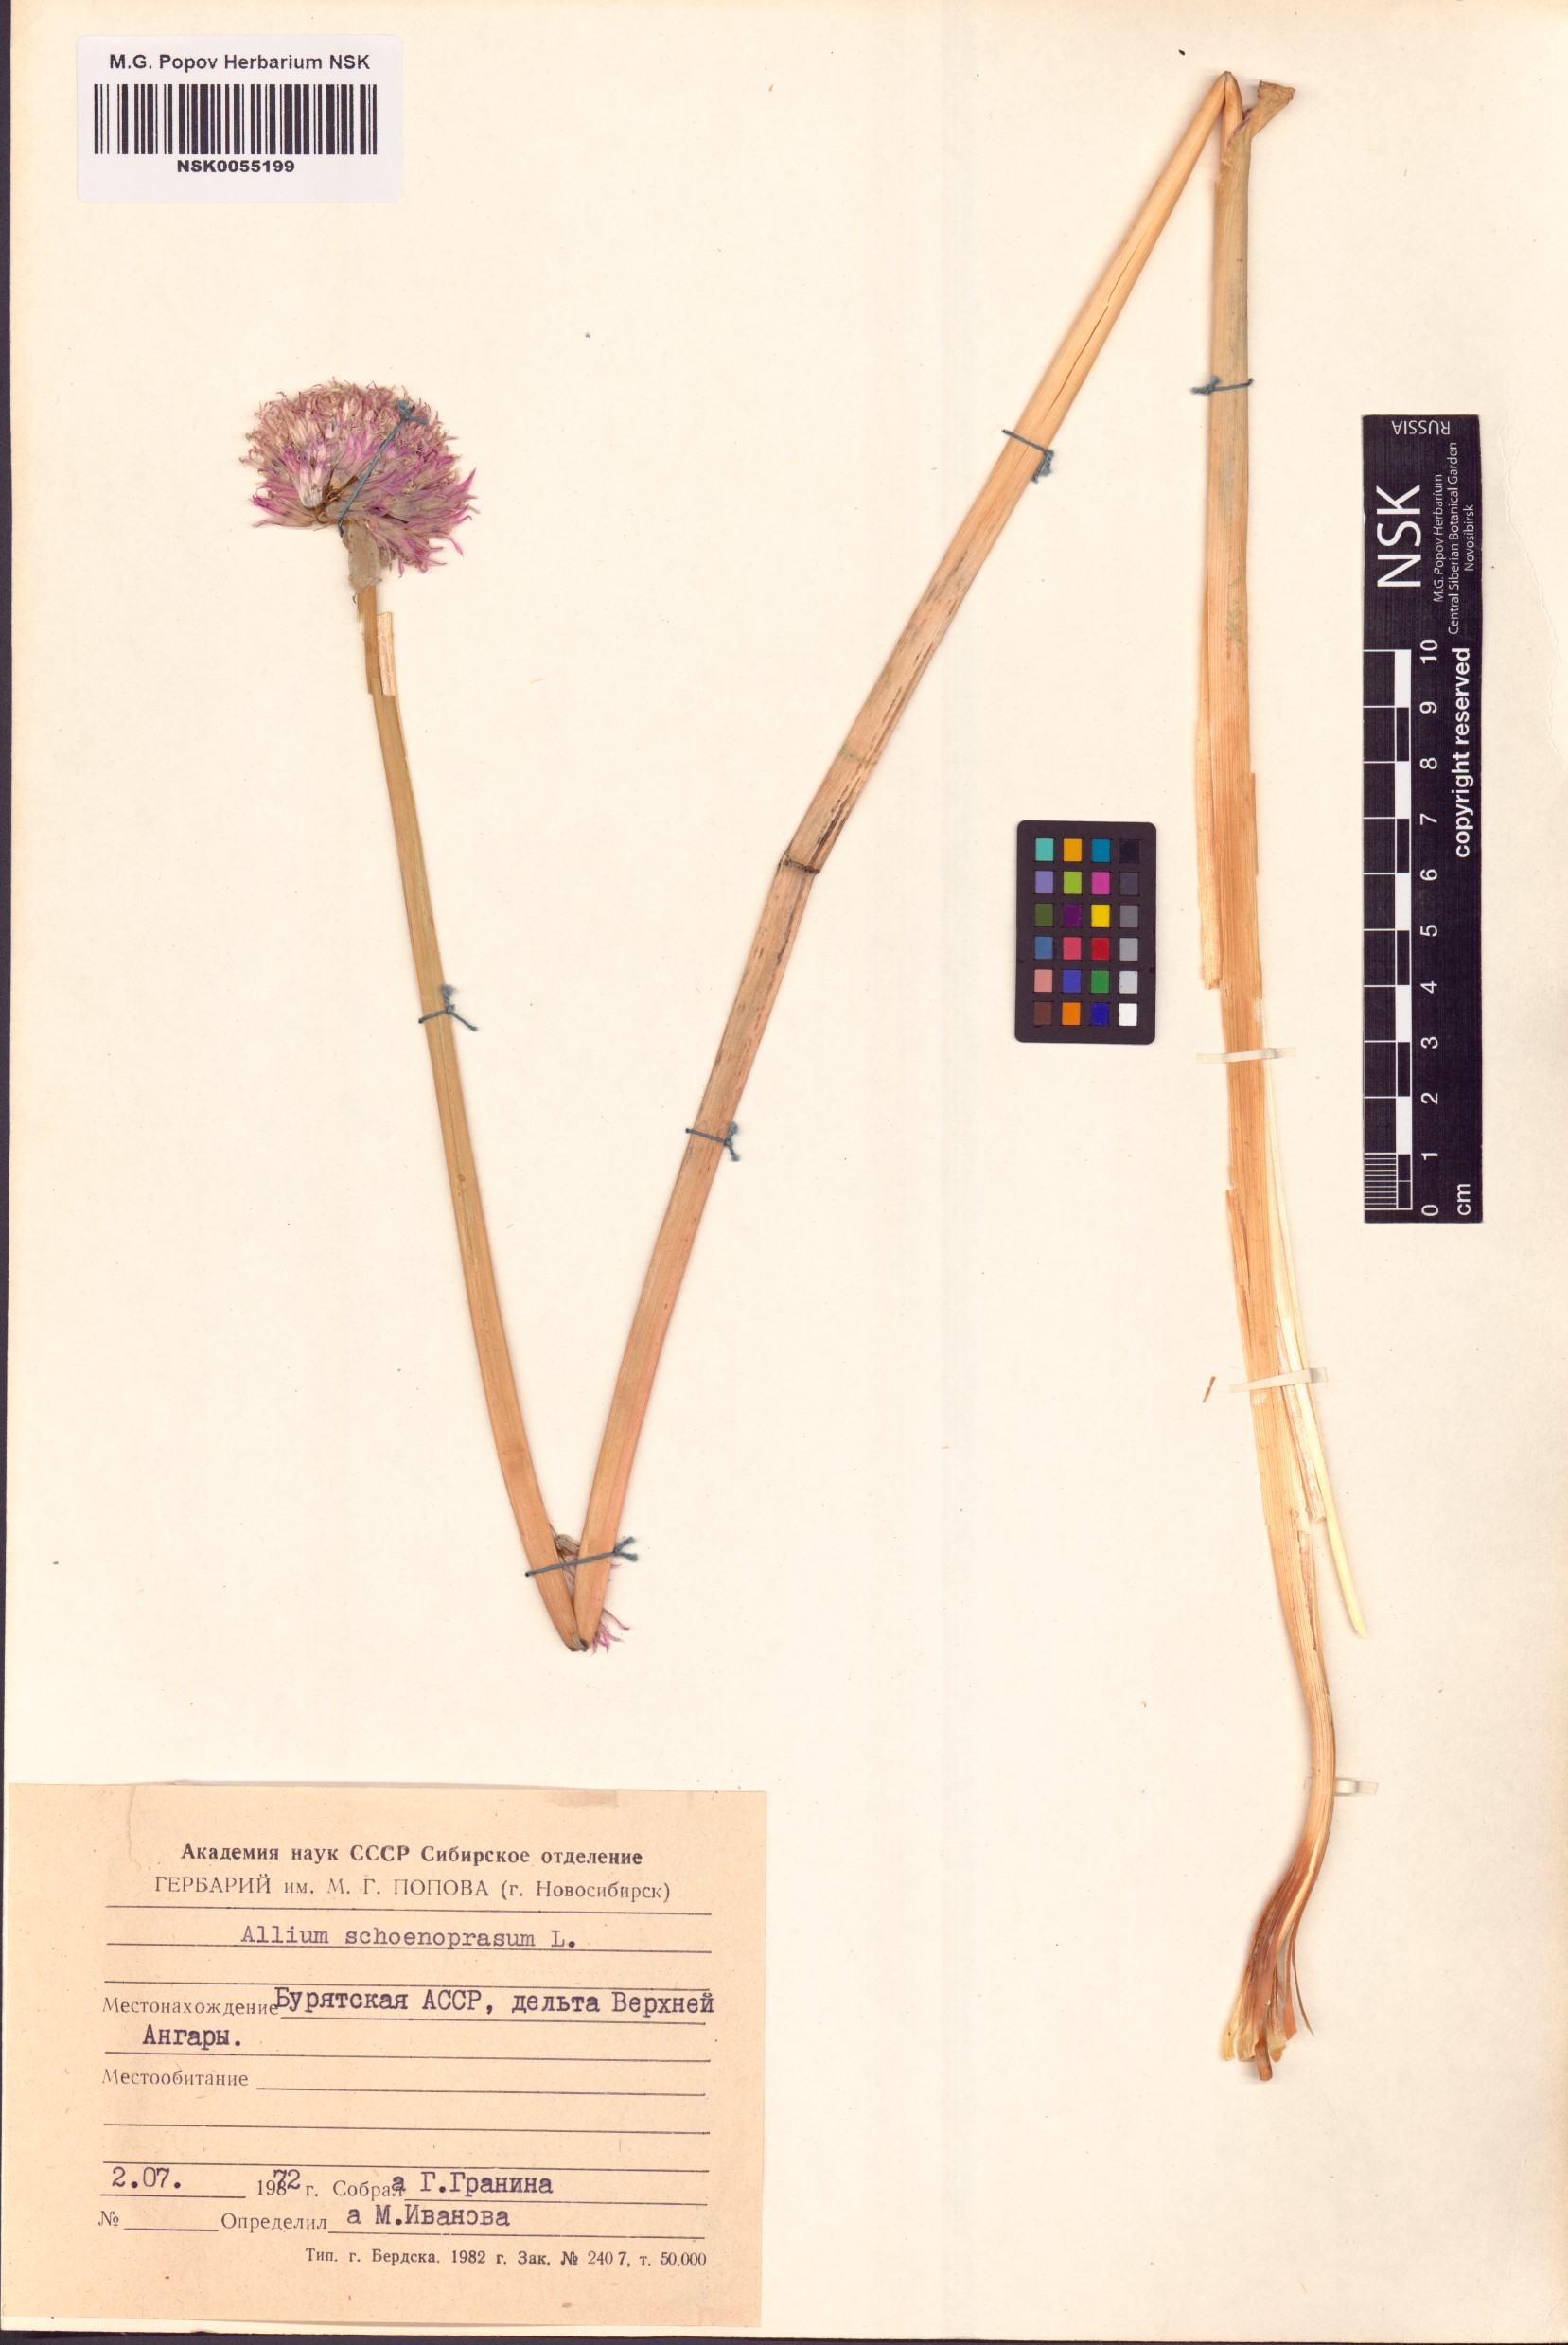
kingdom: Plantae
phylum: Tracheophyta
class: Liliopsida
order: Asparagales
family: Amaryllidaceae
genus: Allium
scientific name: Allium schoenoprasum
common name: Chives
